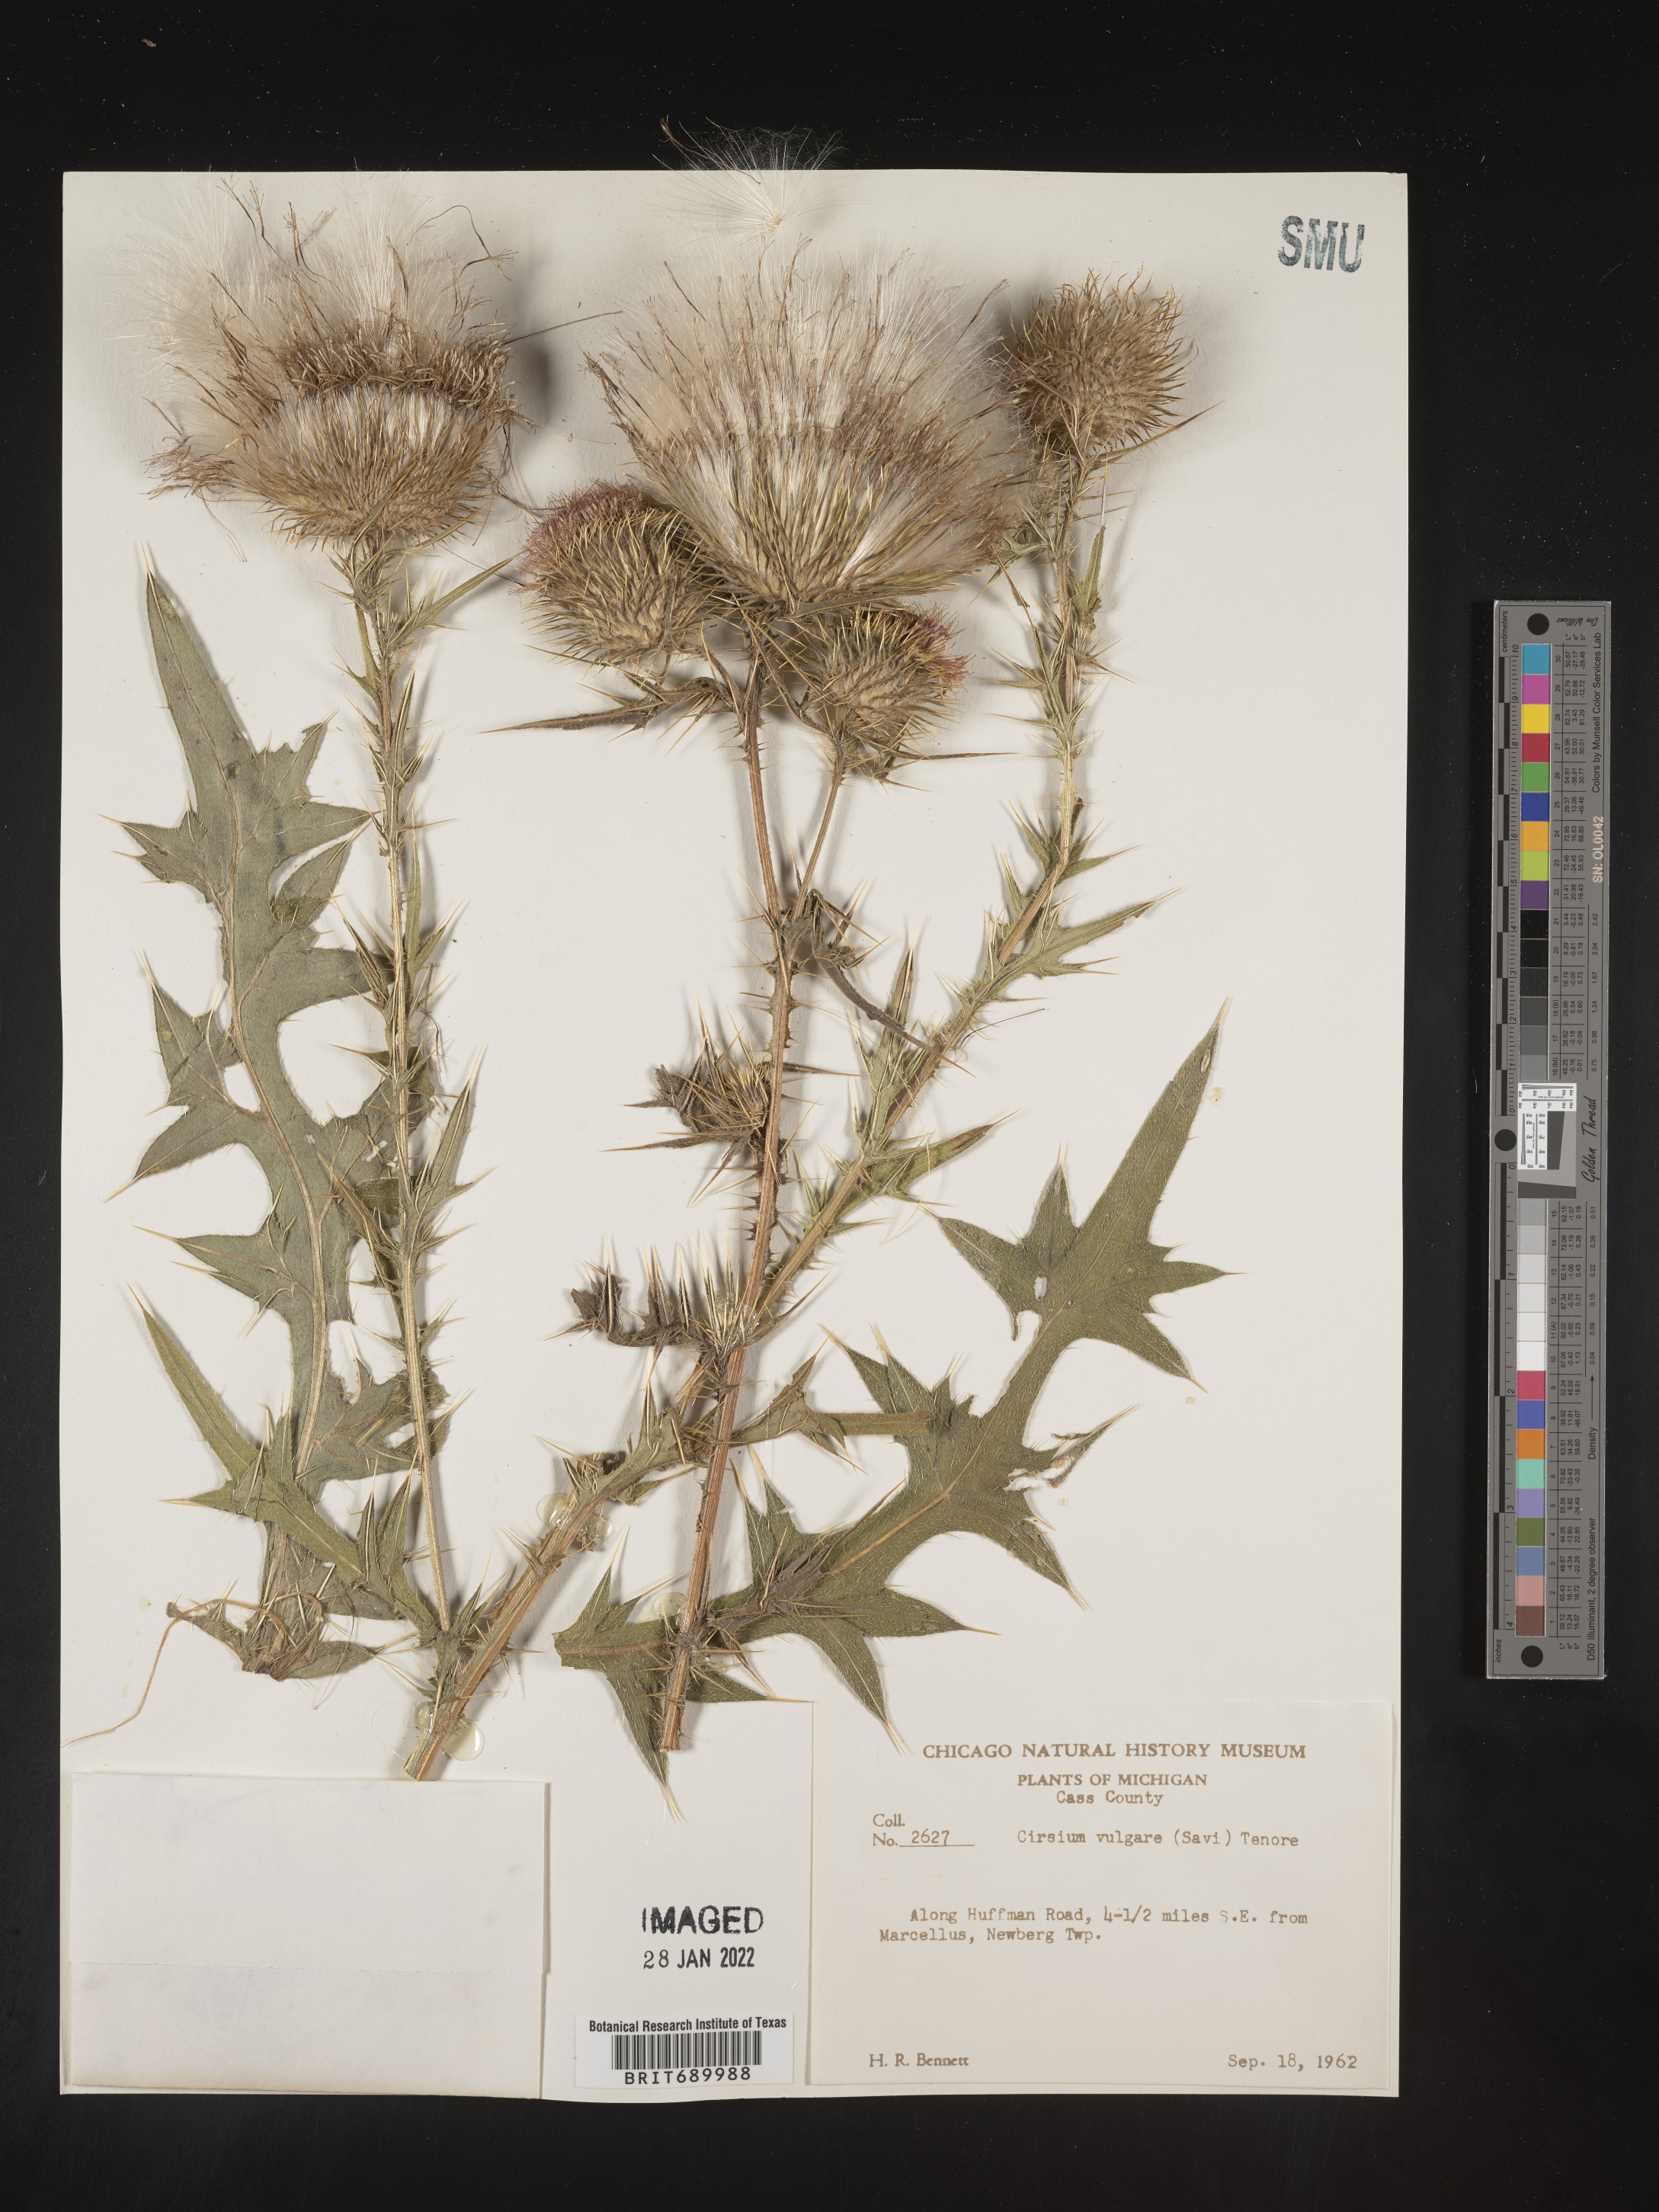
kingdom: Plantae
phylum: Tracheophyta
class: Magnoliopsida
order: Asterales
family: Asteraceae
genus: Cirsium
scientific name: Cirsium vulgare
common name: Bull thistle
